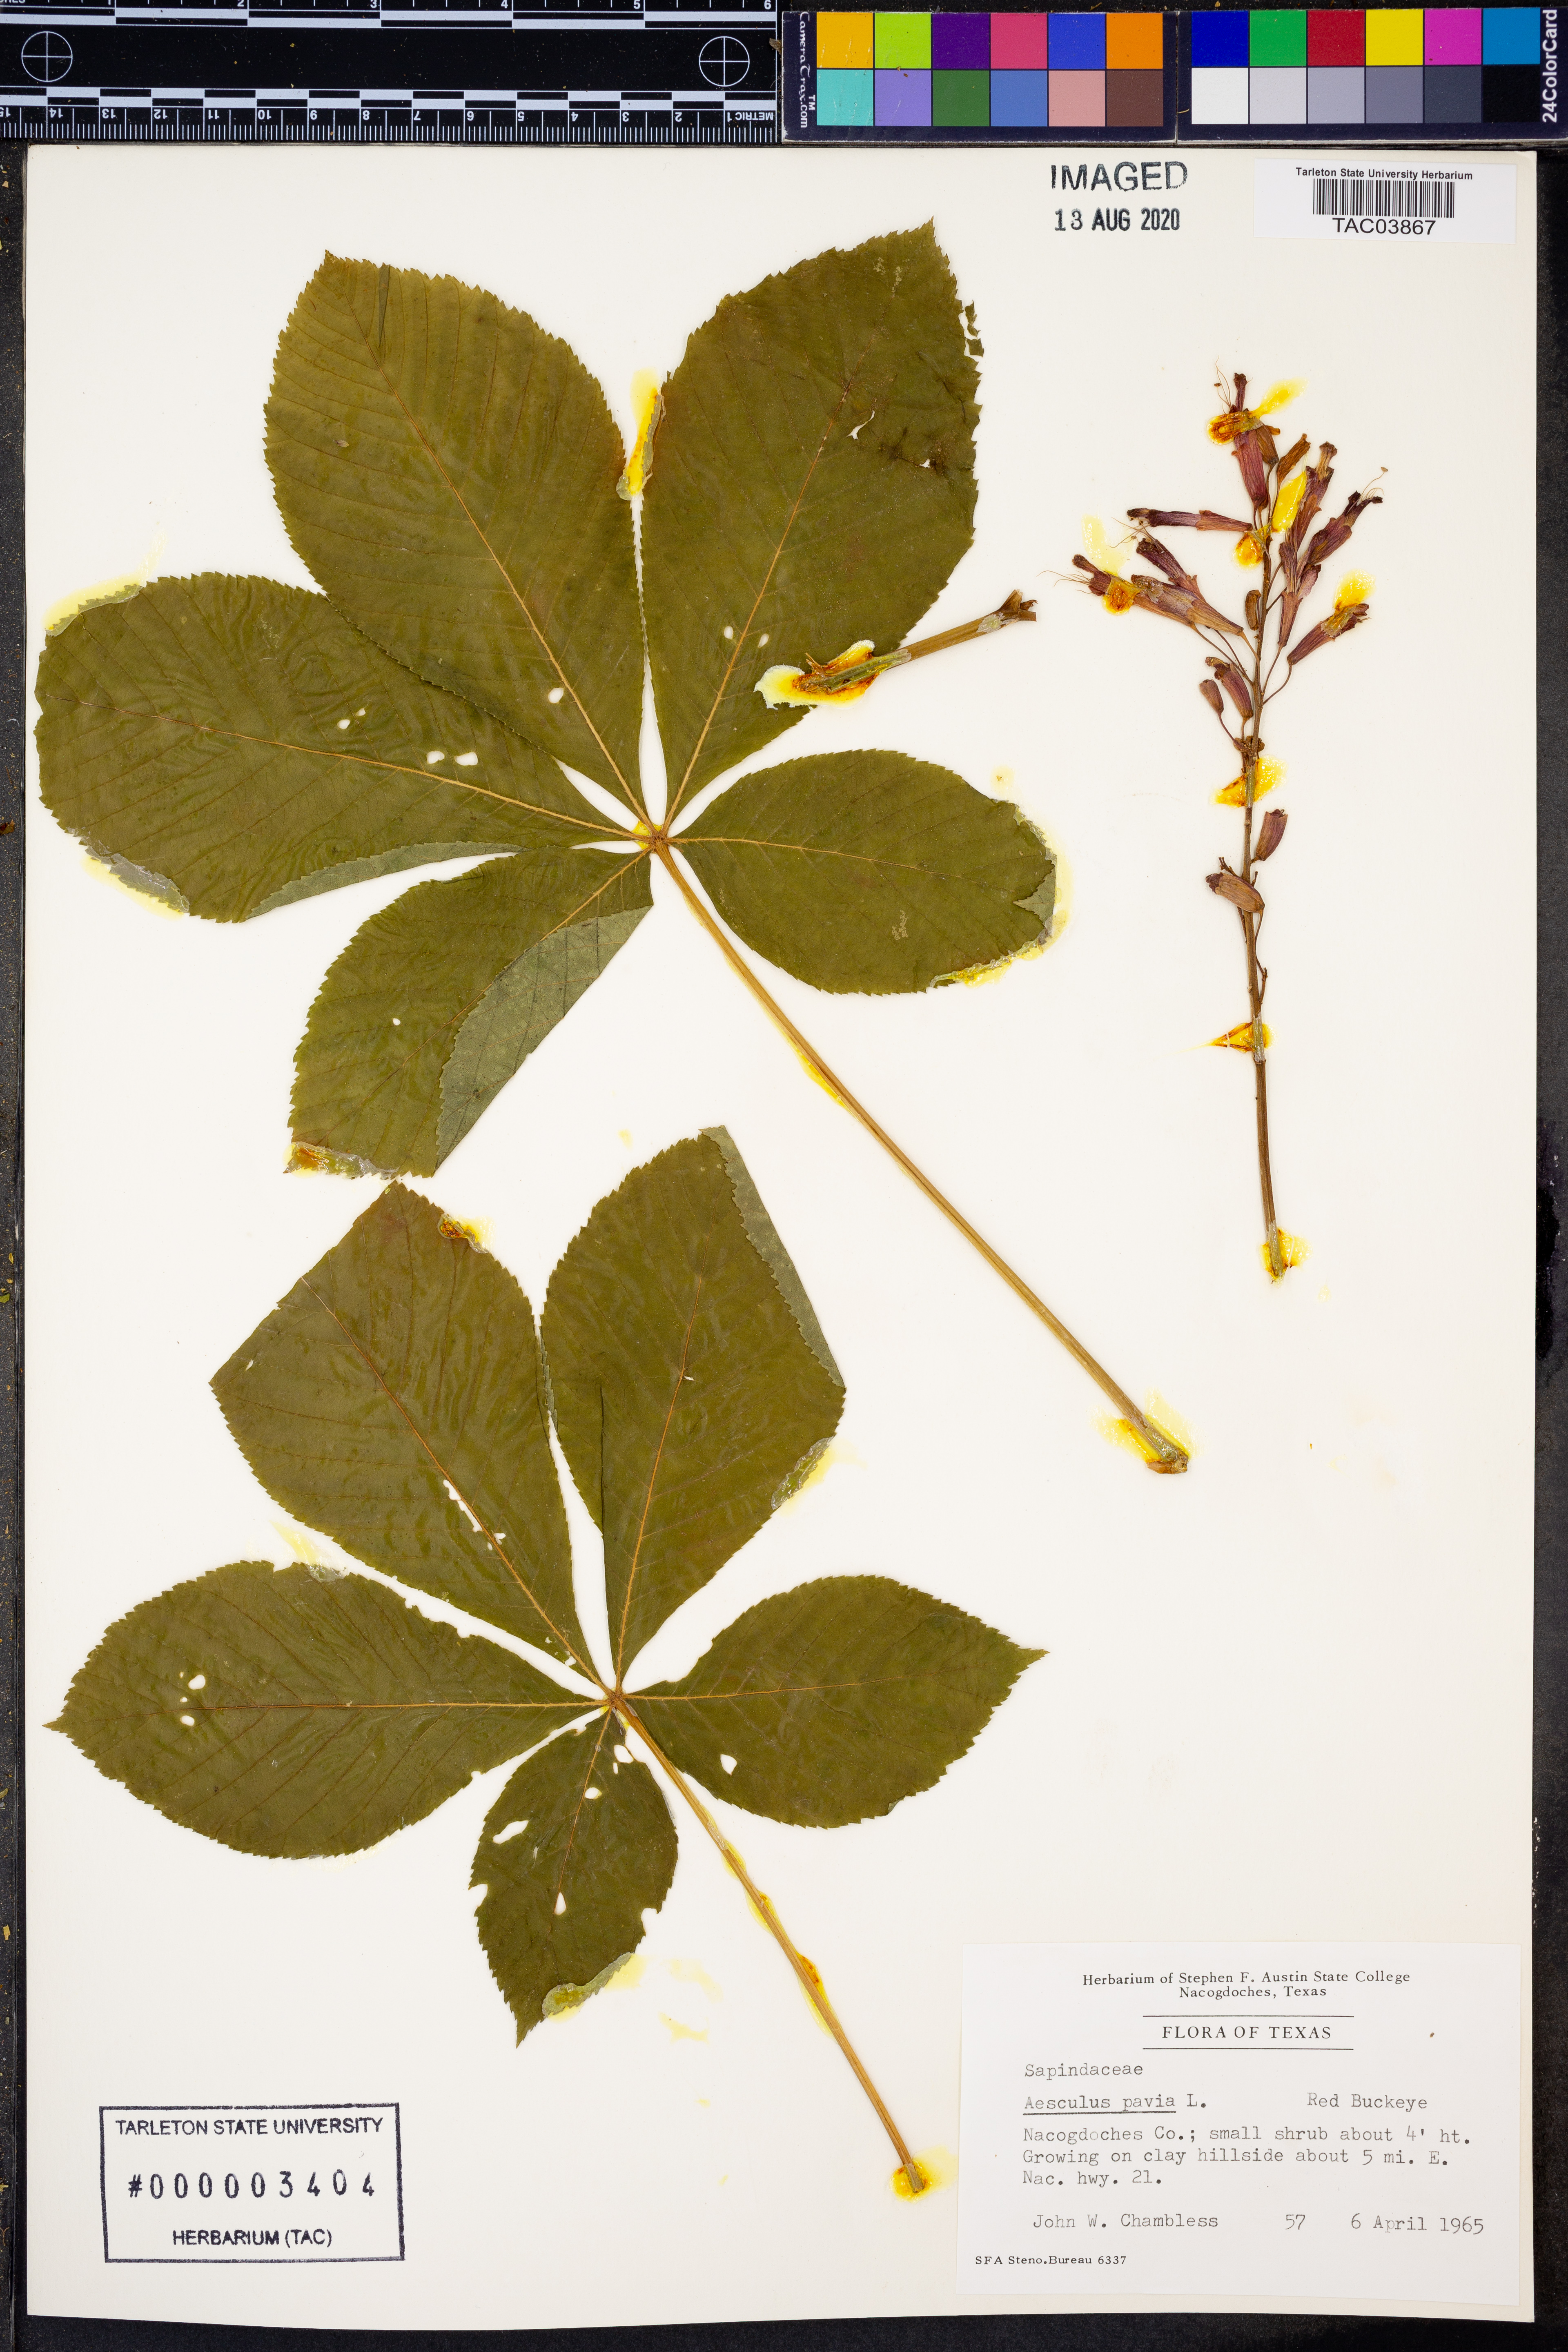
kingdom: Plantae
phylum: Tracheophyta
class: Magnoliopsida
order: Sapindales
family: Sapindaceae
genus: Aesculus
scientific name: Aesculus pavia
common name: Red buckeye
